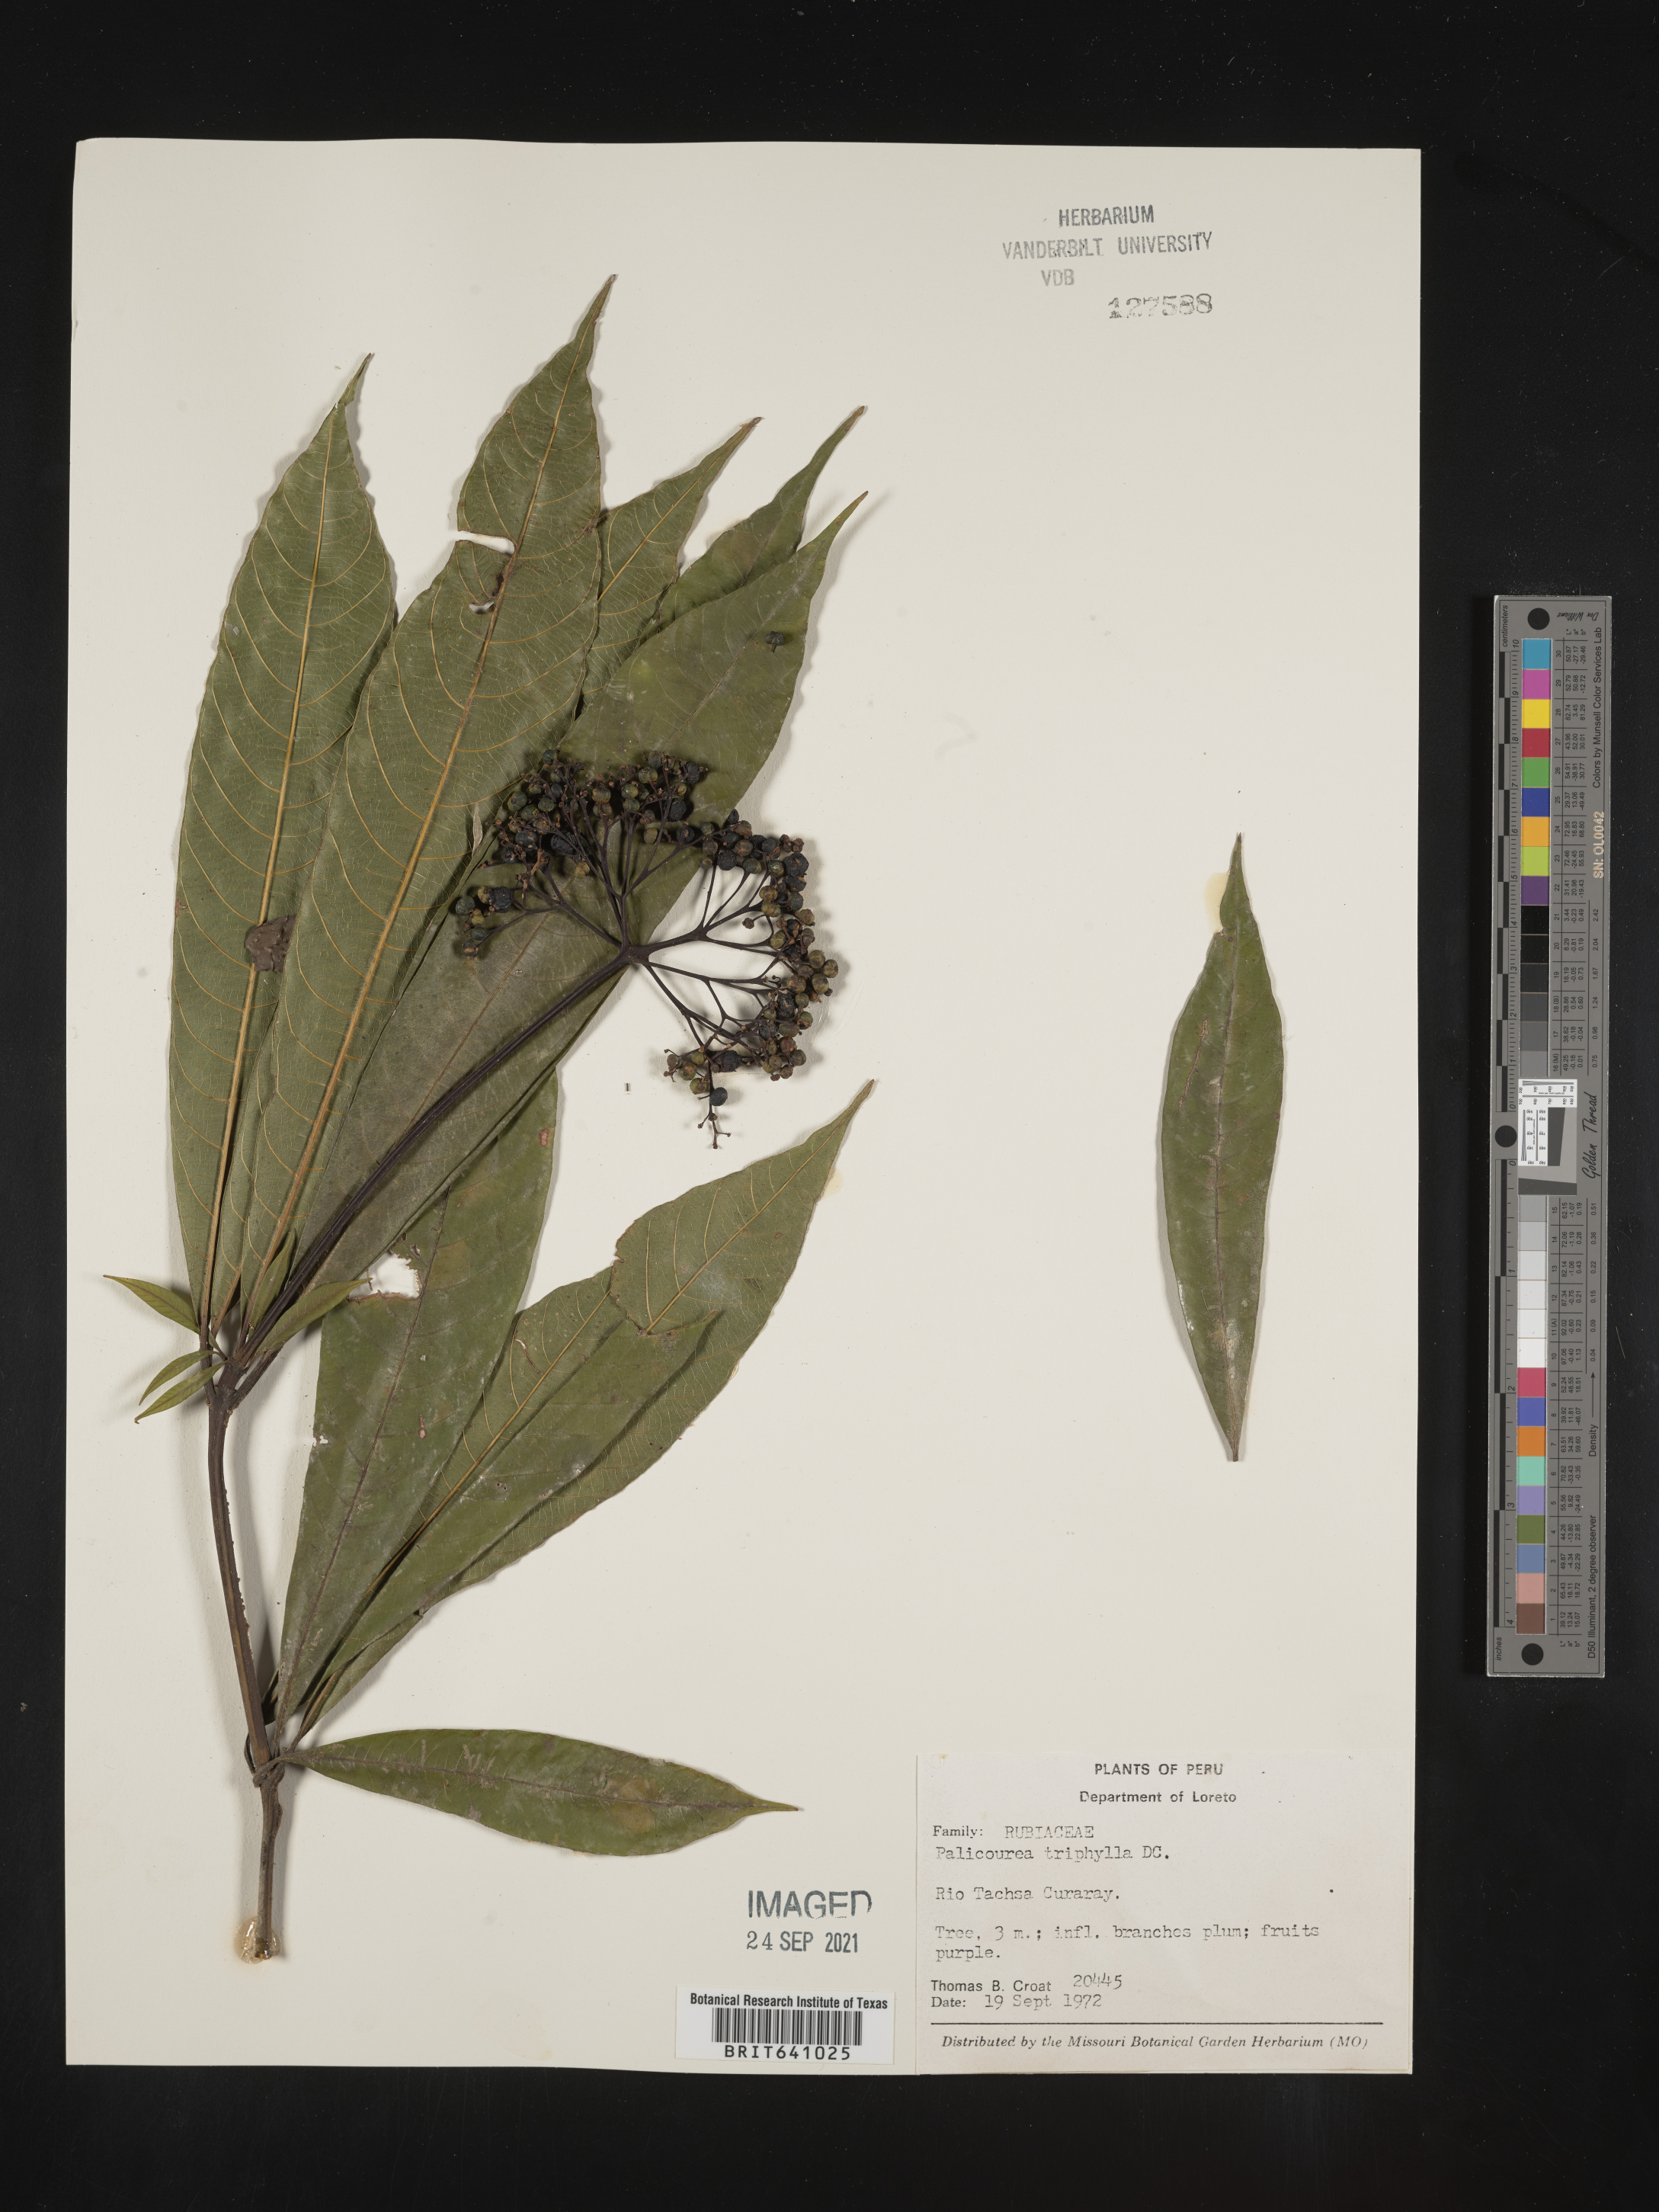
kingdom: Plantae
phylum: Tracheophyta
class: Magnoliopsida
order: Gentianales
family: Rubiaceae
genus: Palicourea
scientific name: Palicourea
